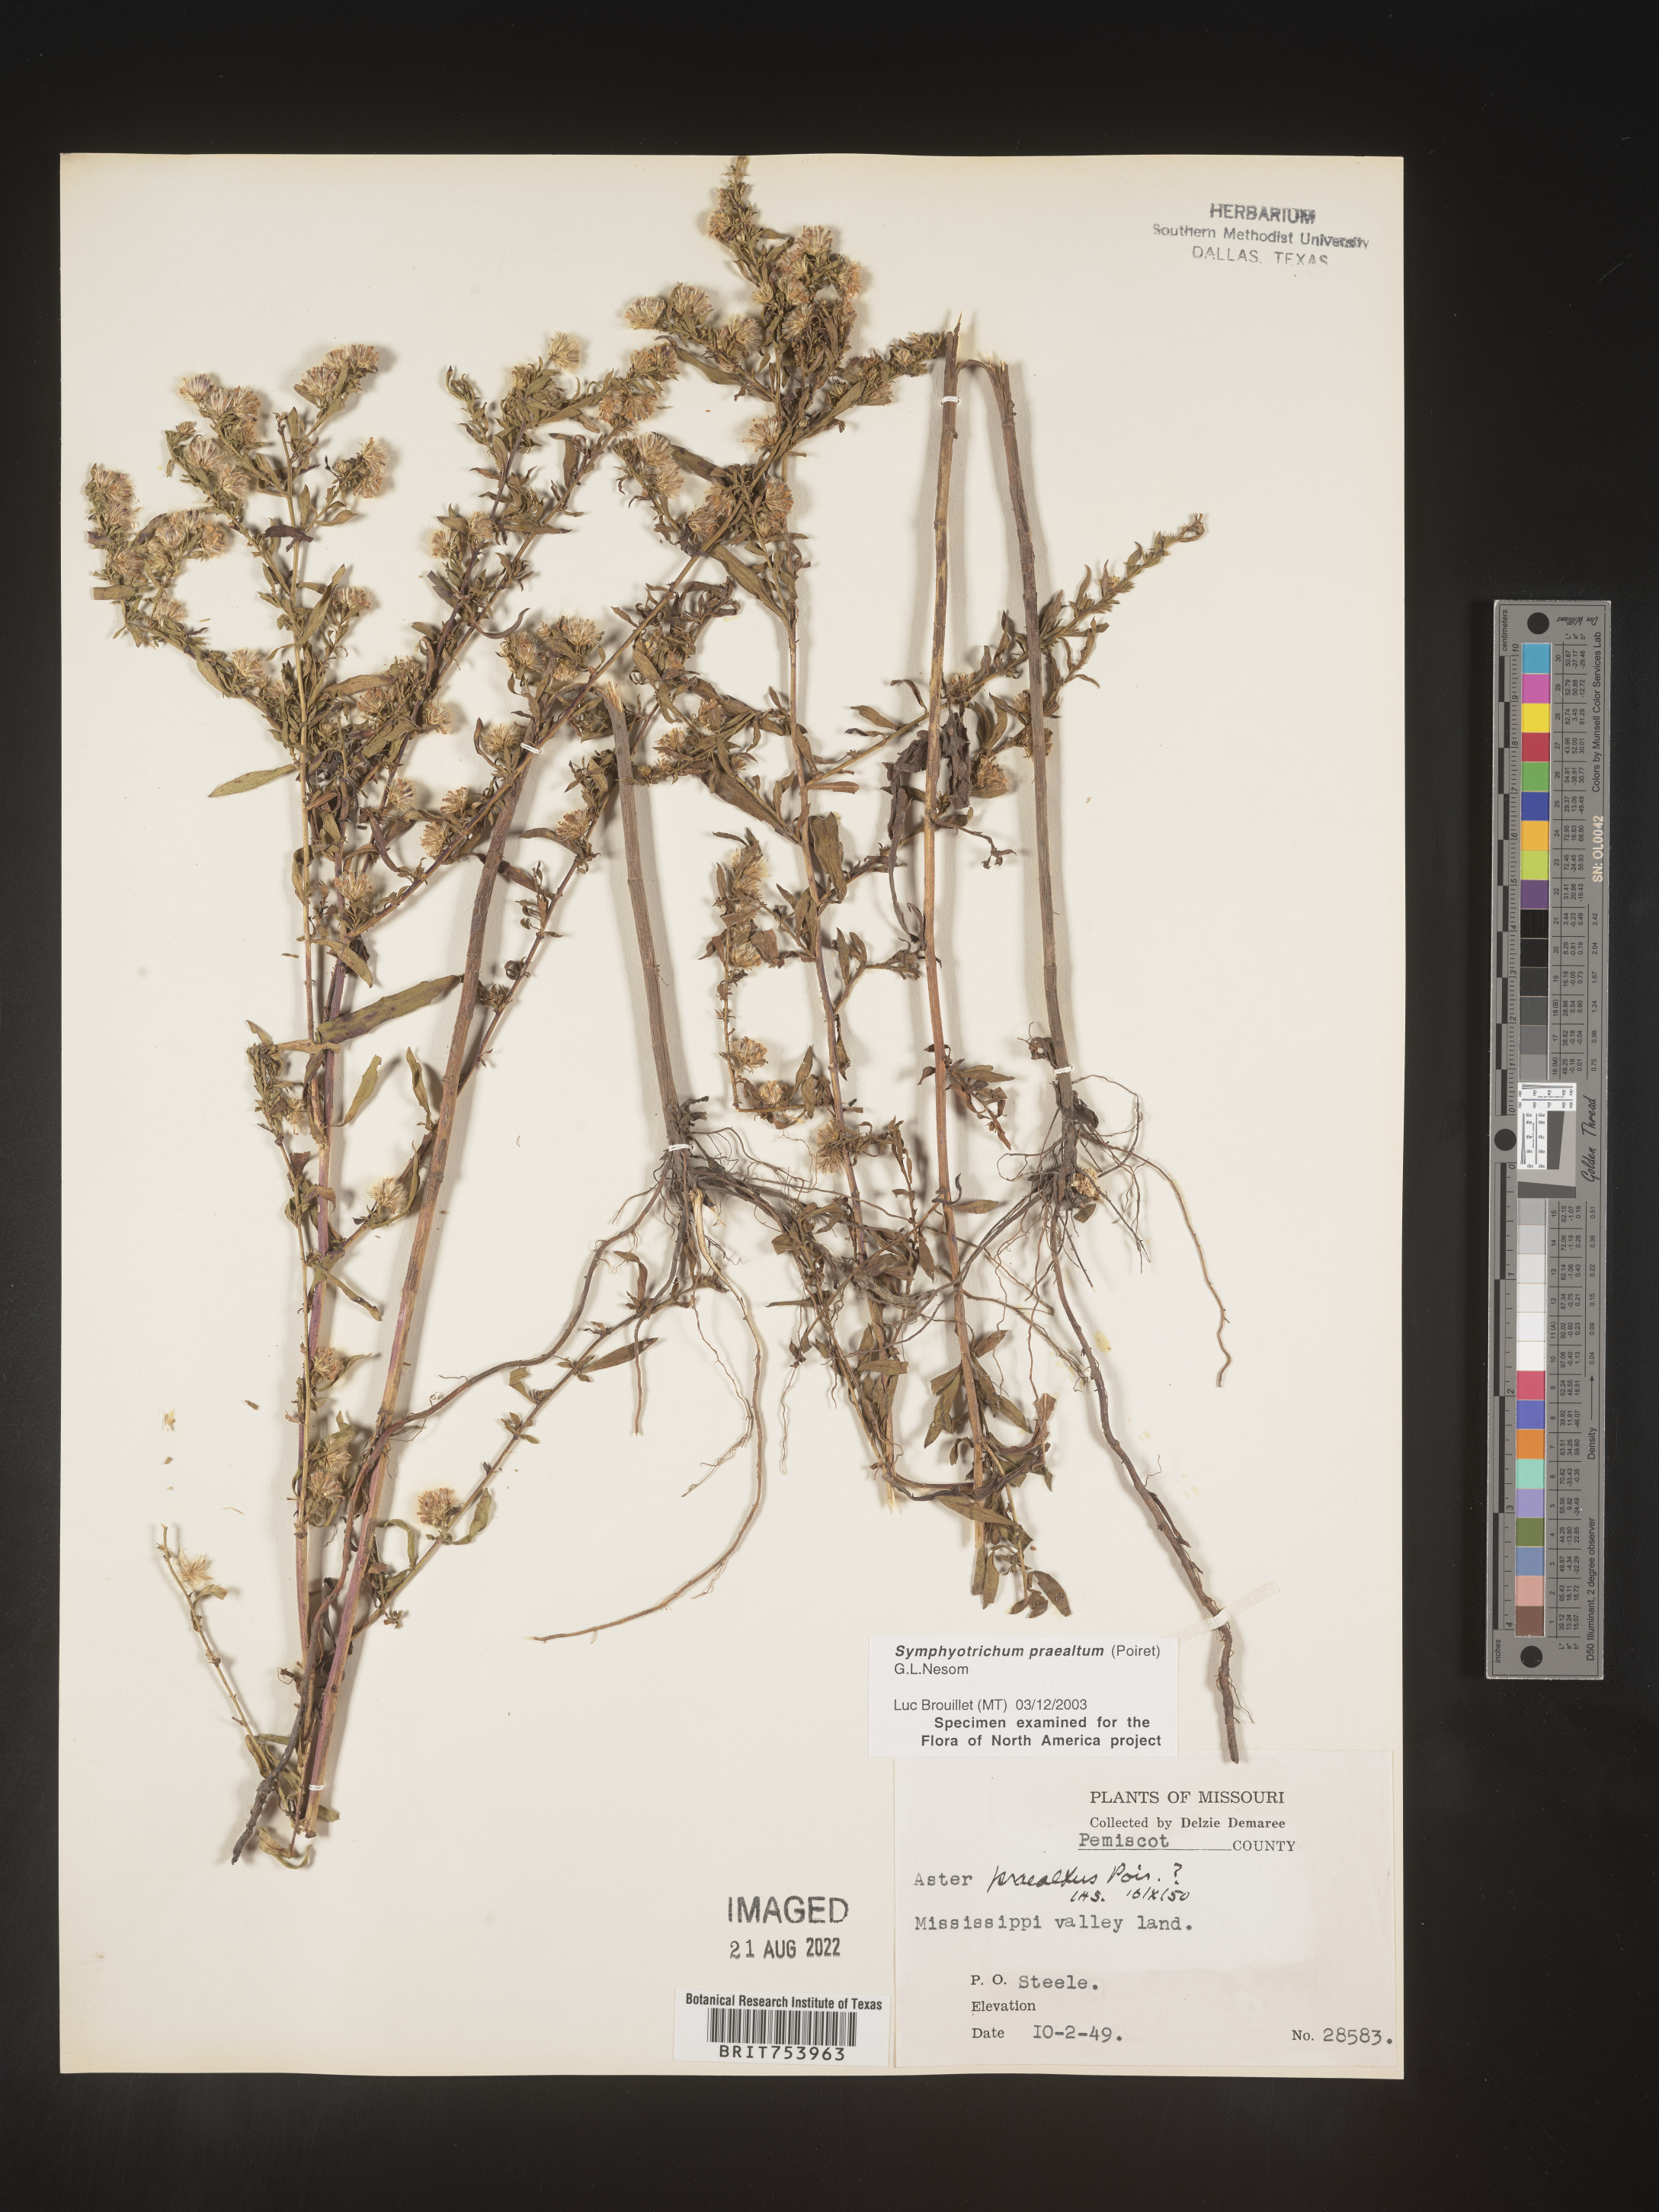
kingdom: Plantae
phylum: Tracheophyta
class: Magnoliopsida
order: Asterales
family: Asteraceae
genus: Symphyotrichum
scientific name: Symphyotrichum praealtum
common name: Willow aster
